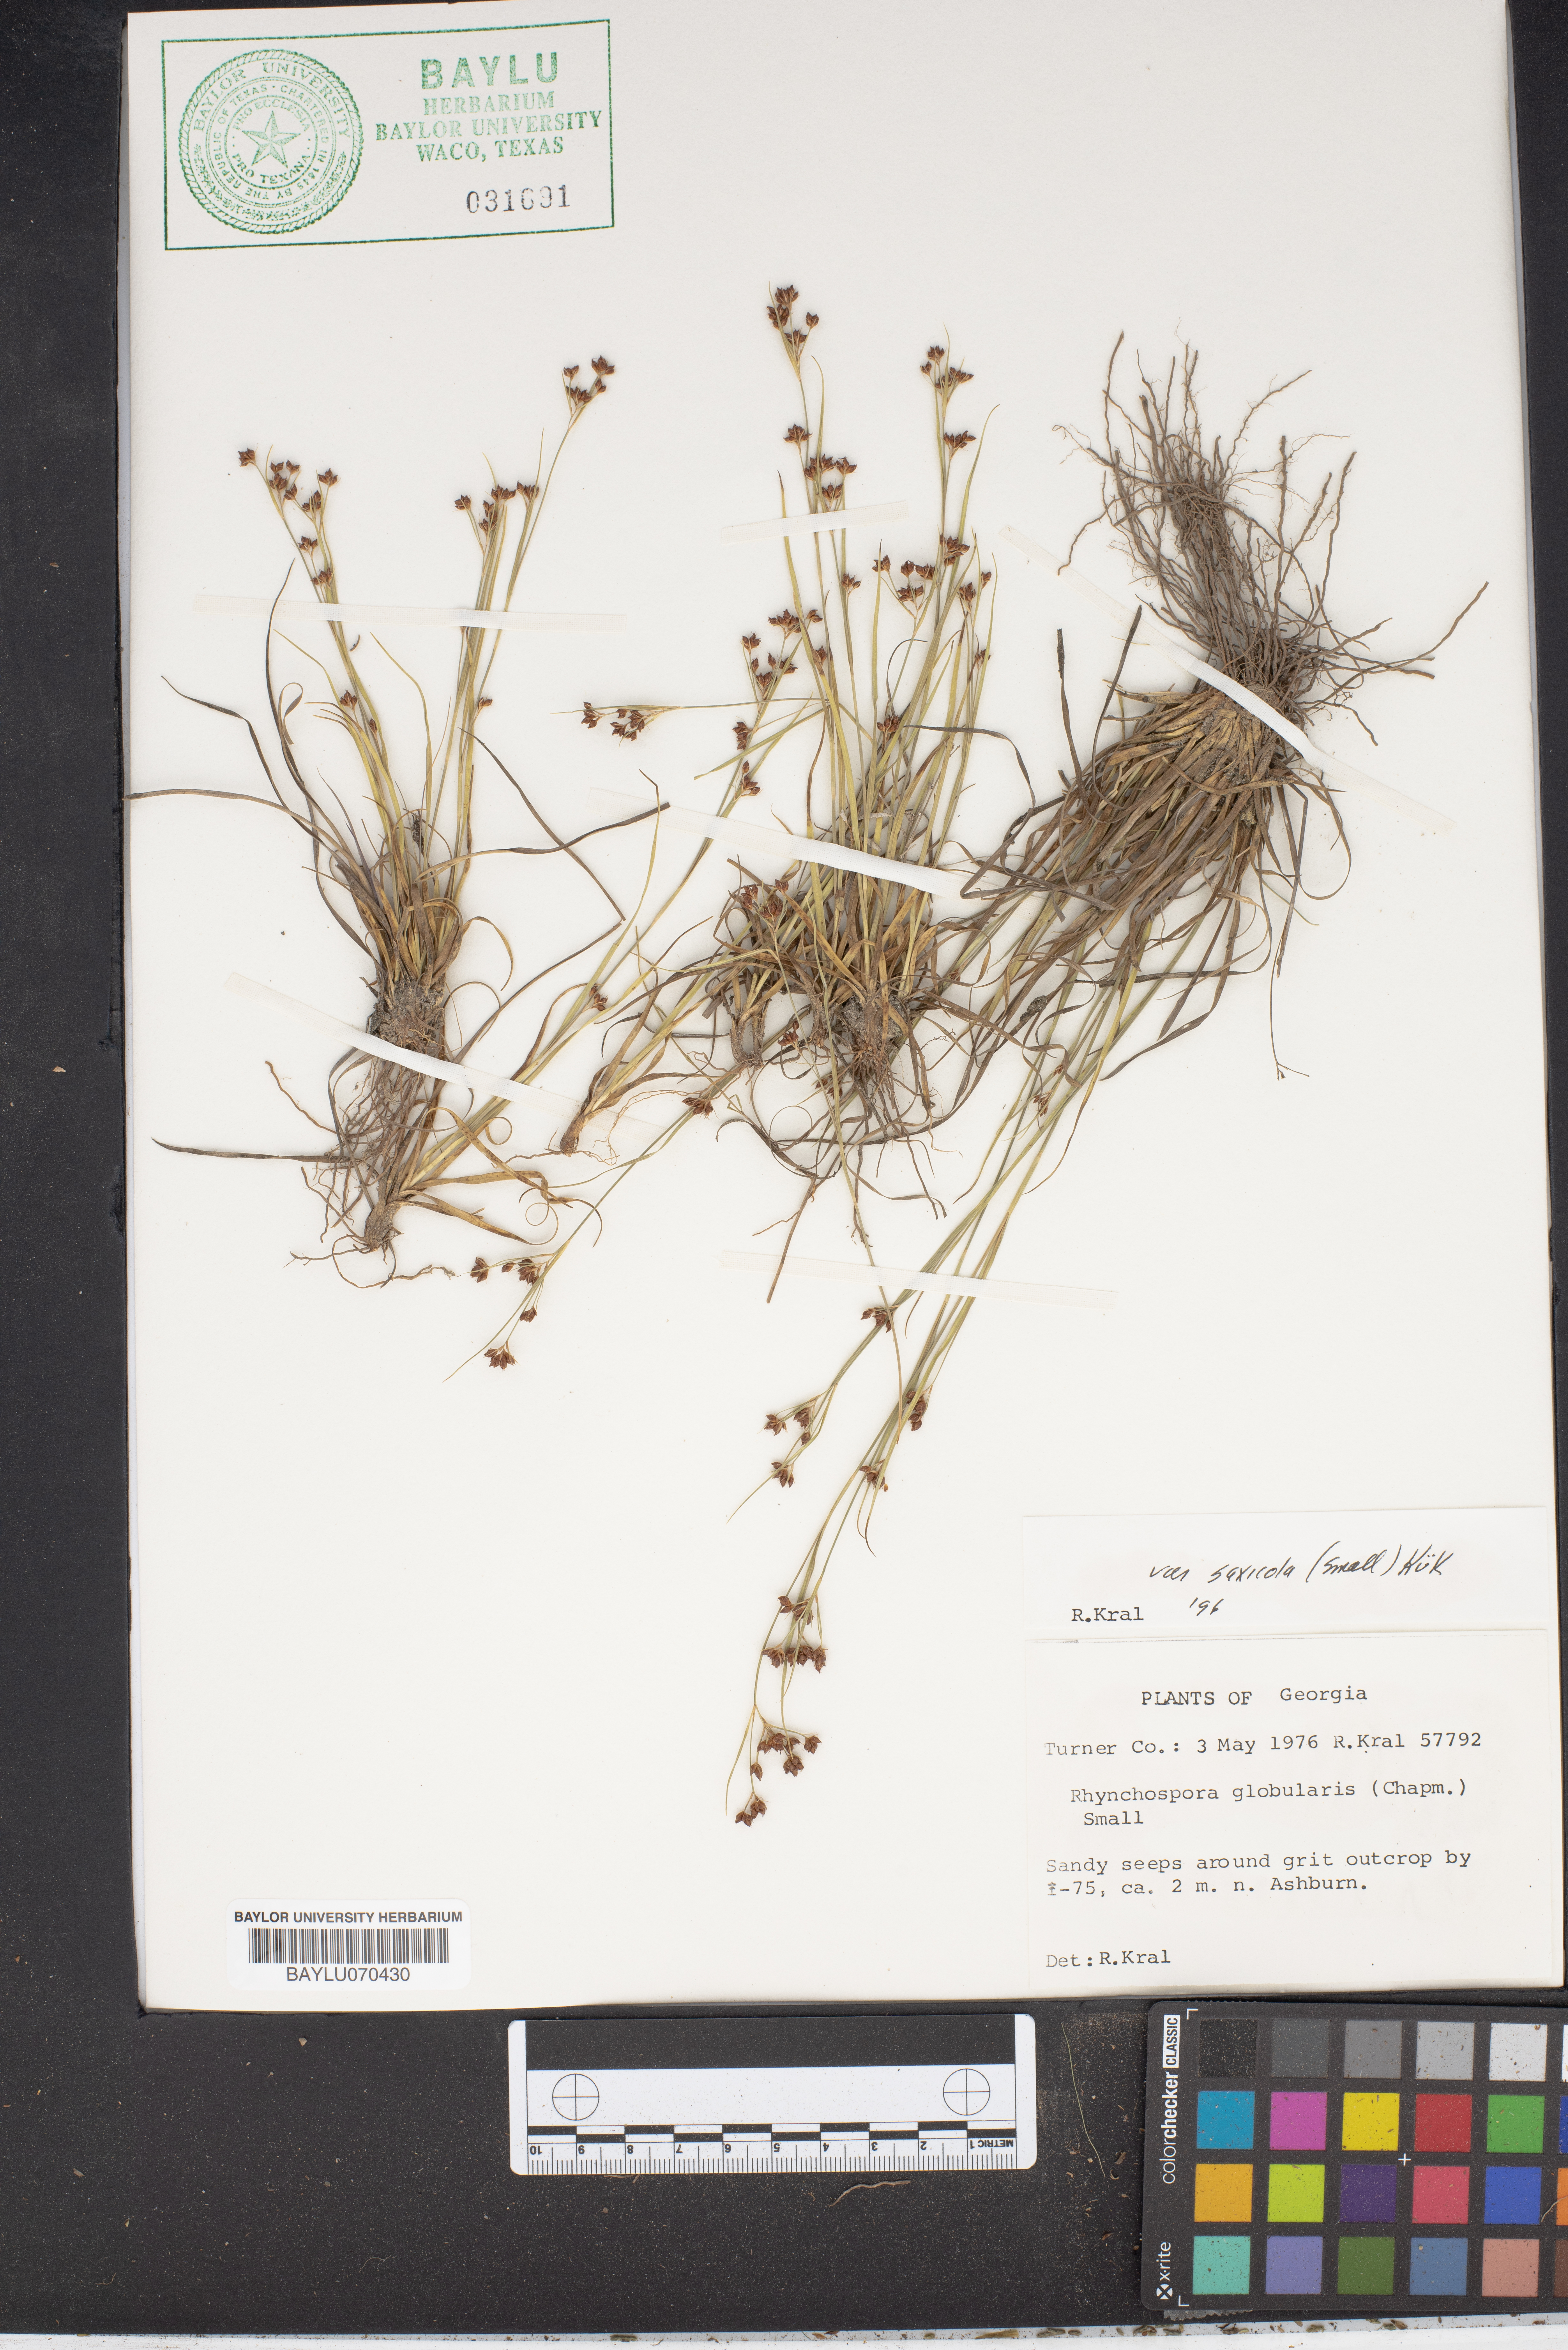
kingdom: Plantae
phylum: Tracheophyta
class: Liliopsida
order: Poales
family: Cyperaceae
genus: Rhynchospora
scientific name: Rhynchospora globularis
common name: Globe beaksedge
